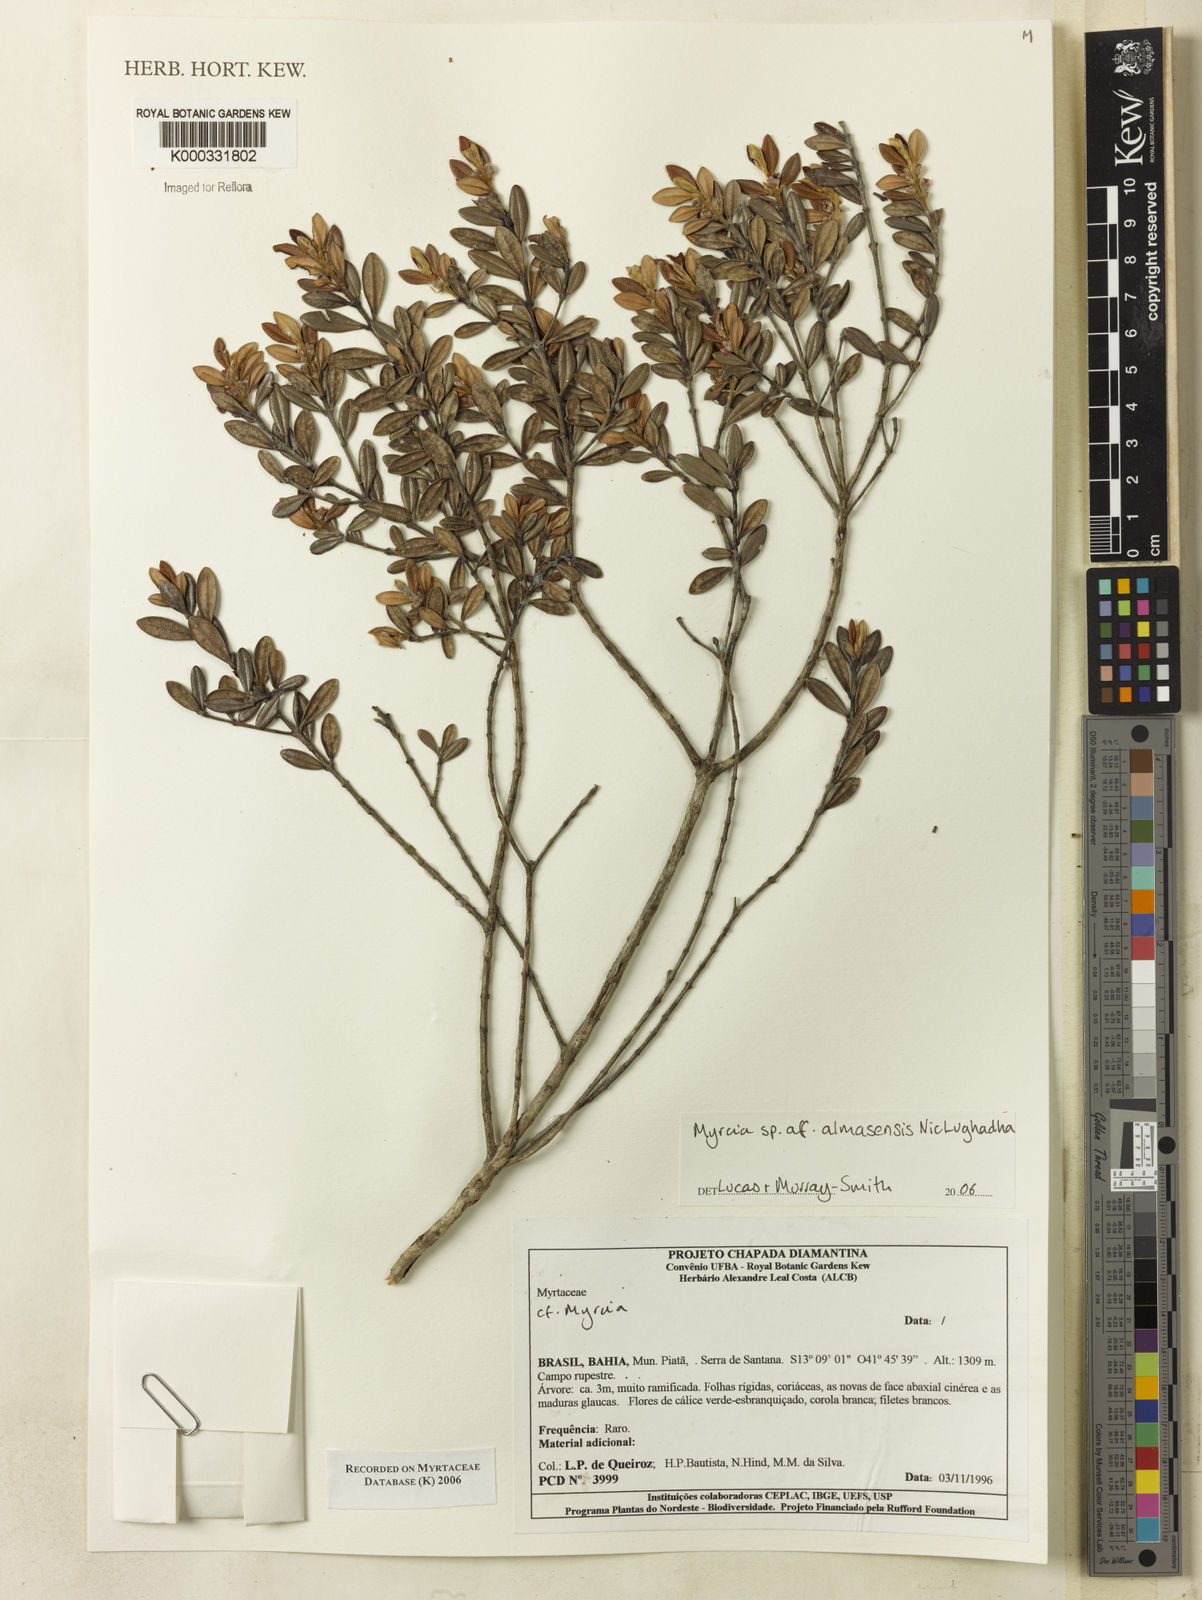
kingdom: Plantae
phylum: Tracheophyta
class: Magnoliopsida
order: Myrtales
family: Myrtaceae
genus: Myrcia
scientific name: Myrcia almasensis
